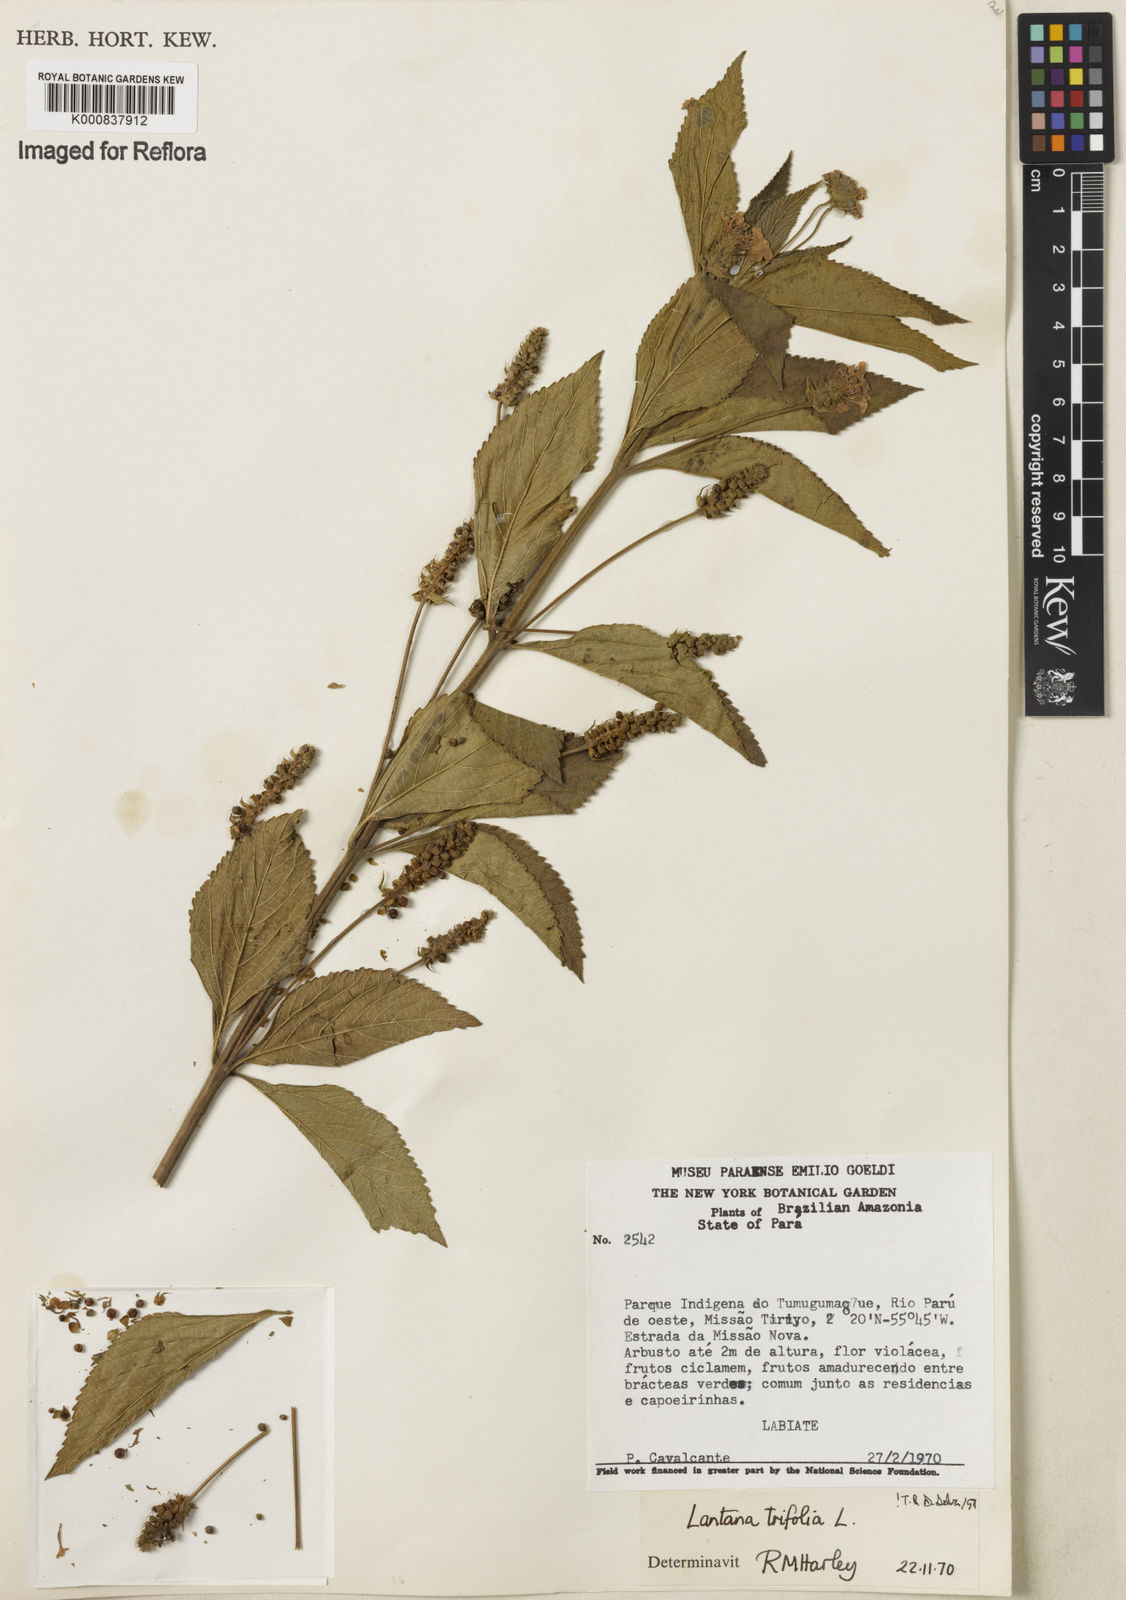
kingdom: Plantae
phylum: Tracheophyta
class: Magnoliopsida
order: Lamiales
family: Verbenaceae
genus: Lantana
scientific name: Lantana trifolia
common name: Sweet-sage
